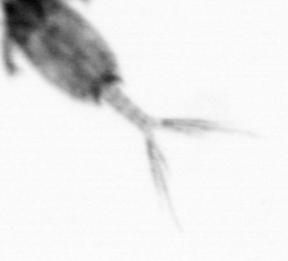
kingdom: Animalia
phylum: Arthropoda
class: Copepoda
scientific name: Copepoda
